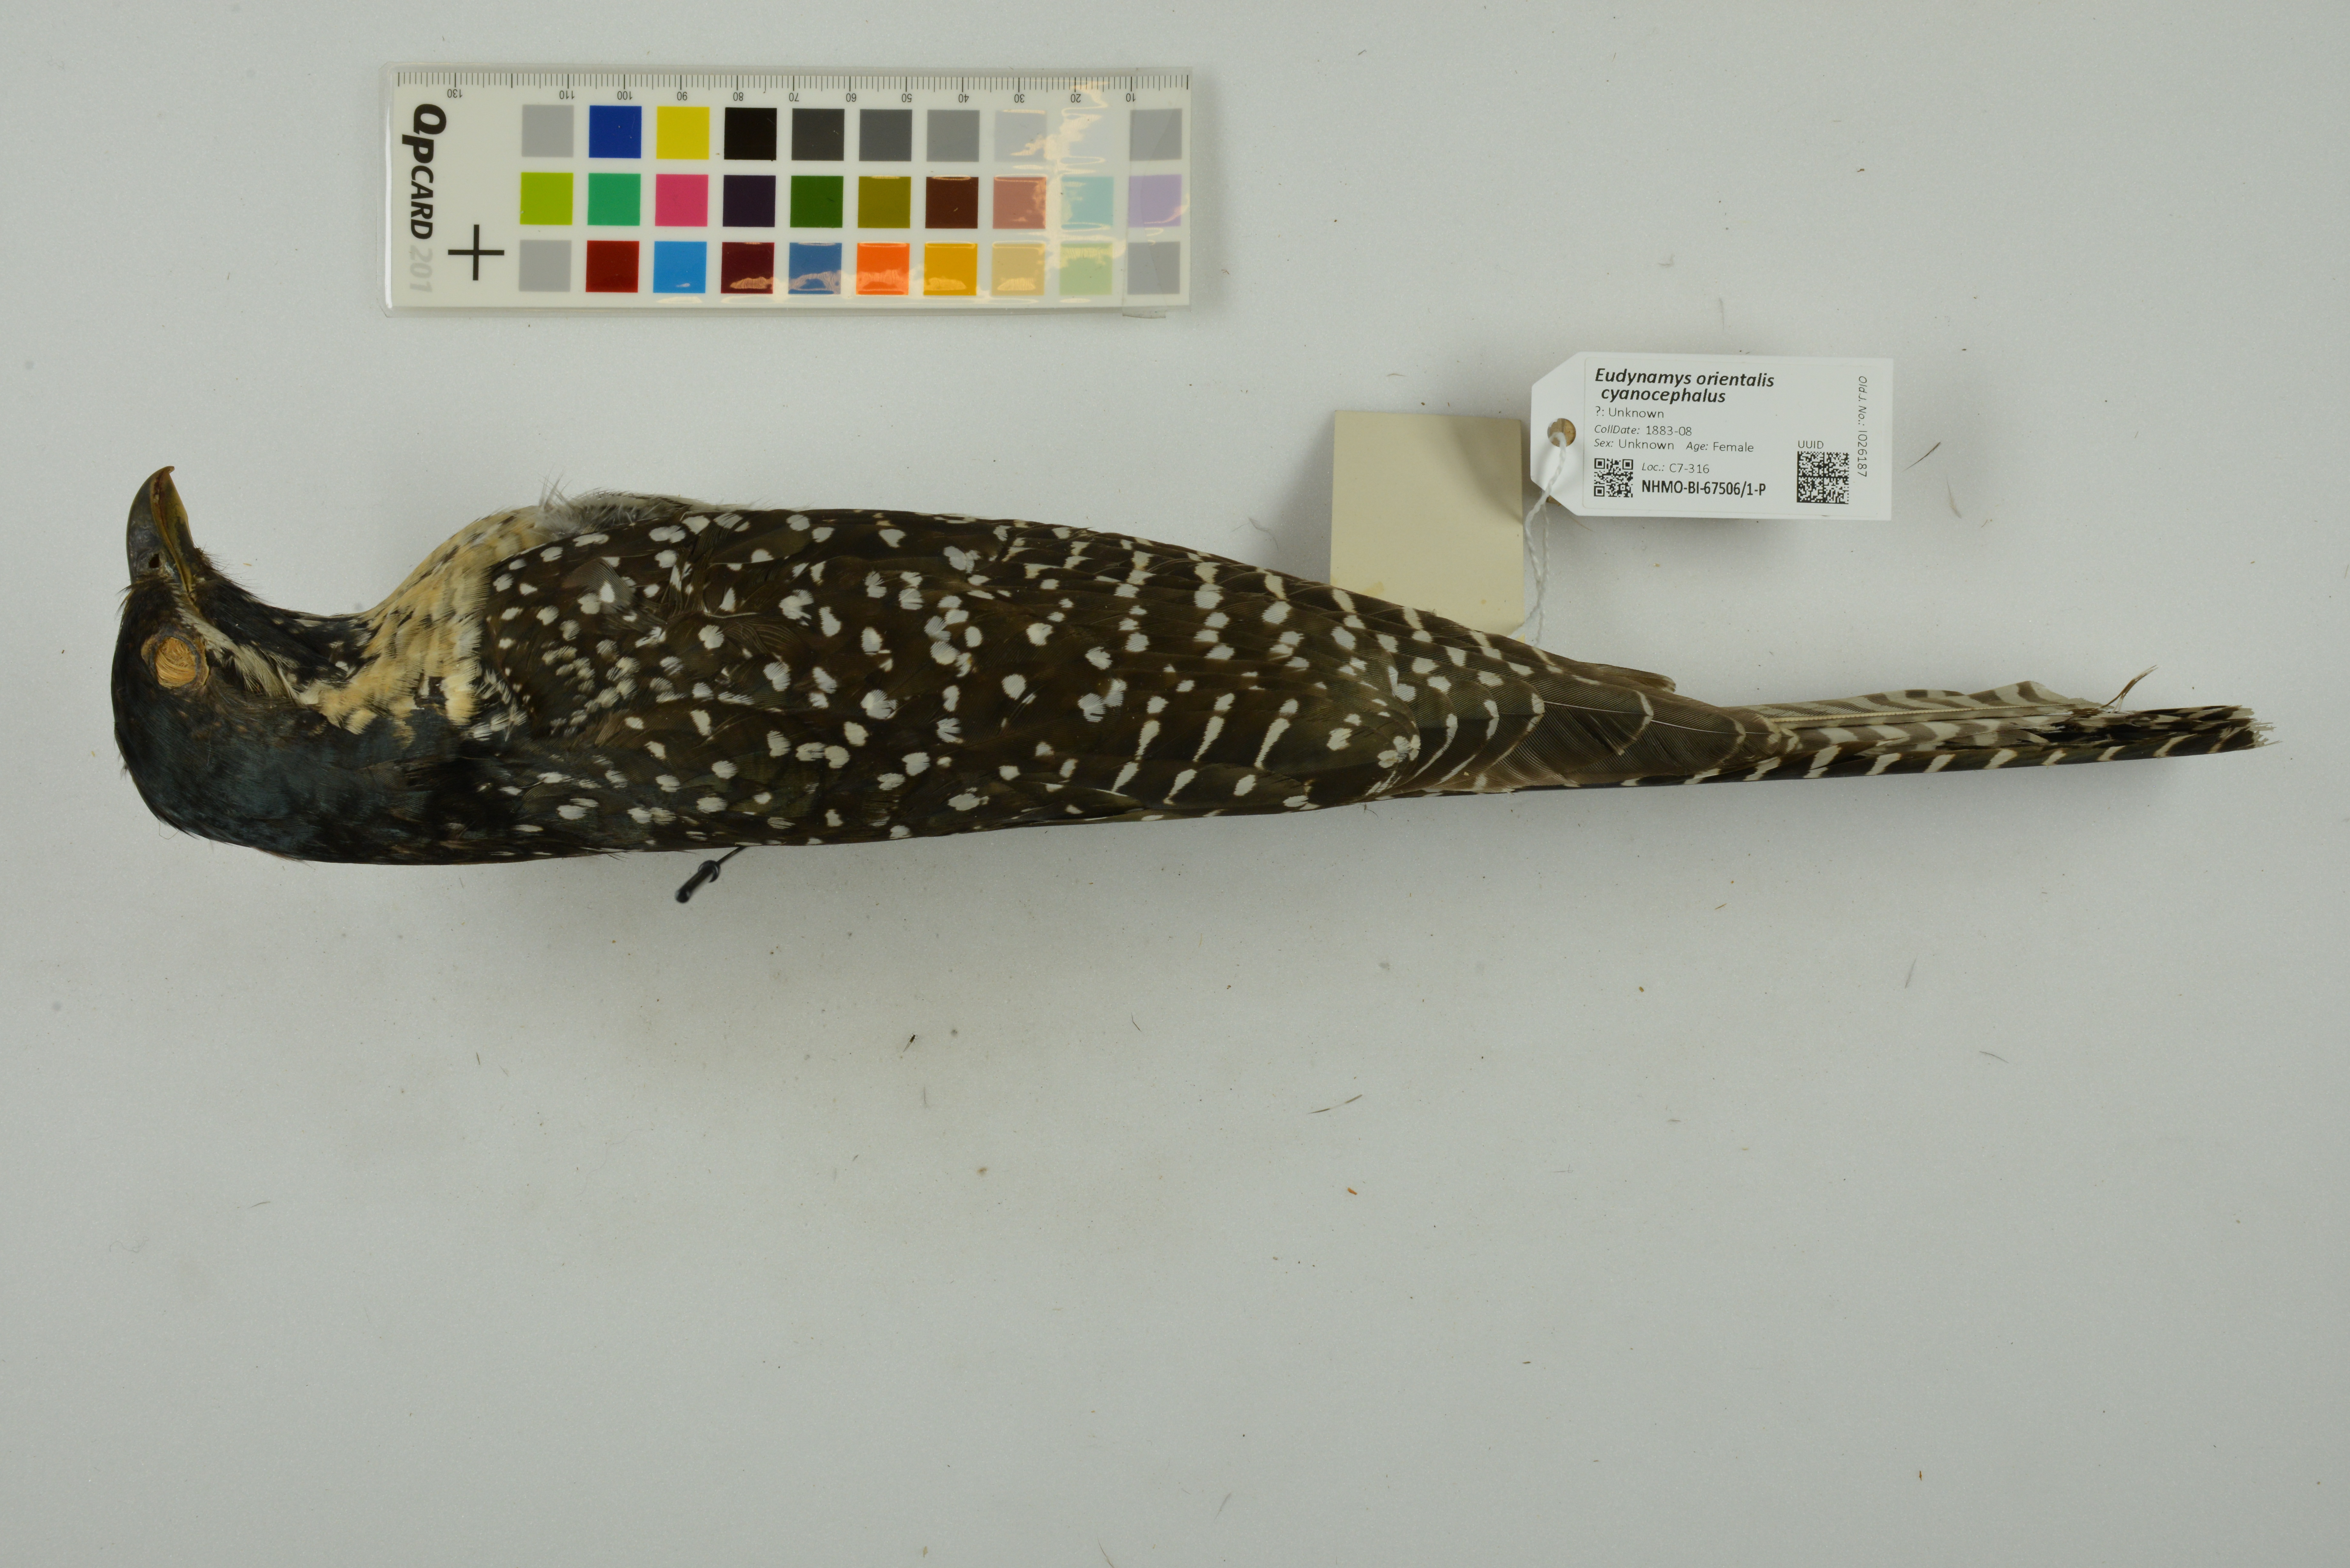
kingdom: Animalia
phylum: Chordata
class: Aves
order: Cuculiformes
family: Cuculidae
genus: Eudynamys
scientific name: Eudynamys scolopaceus
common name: Asian koel
